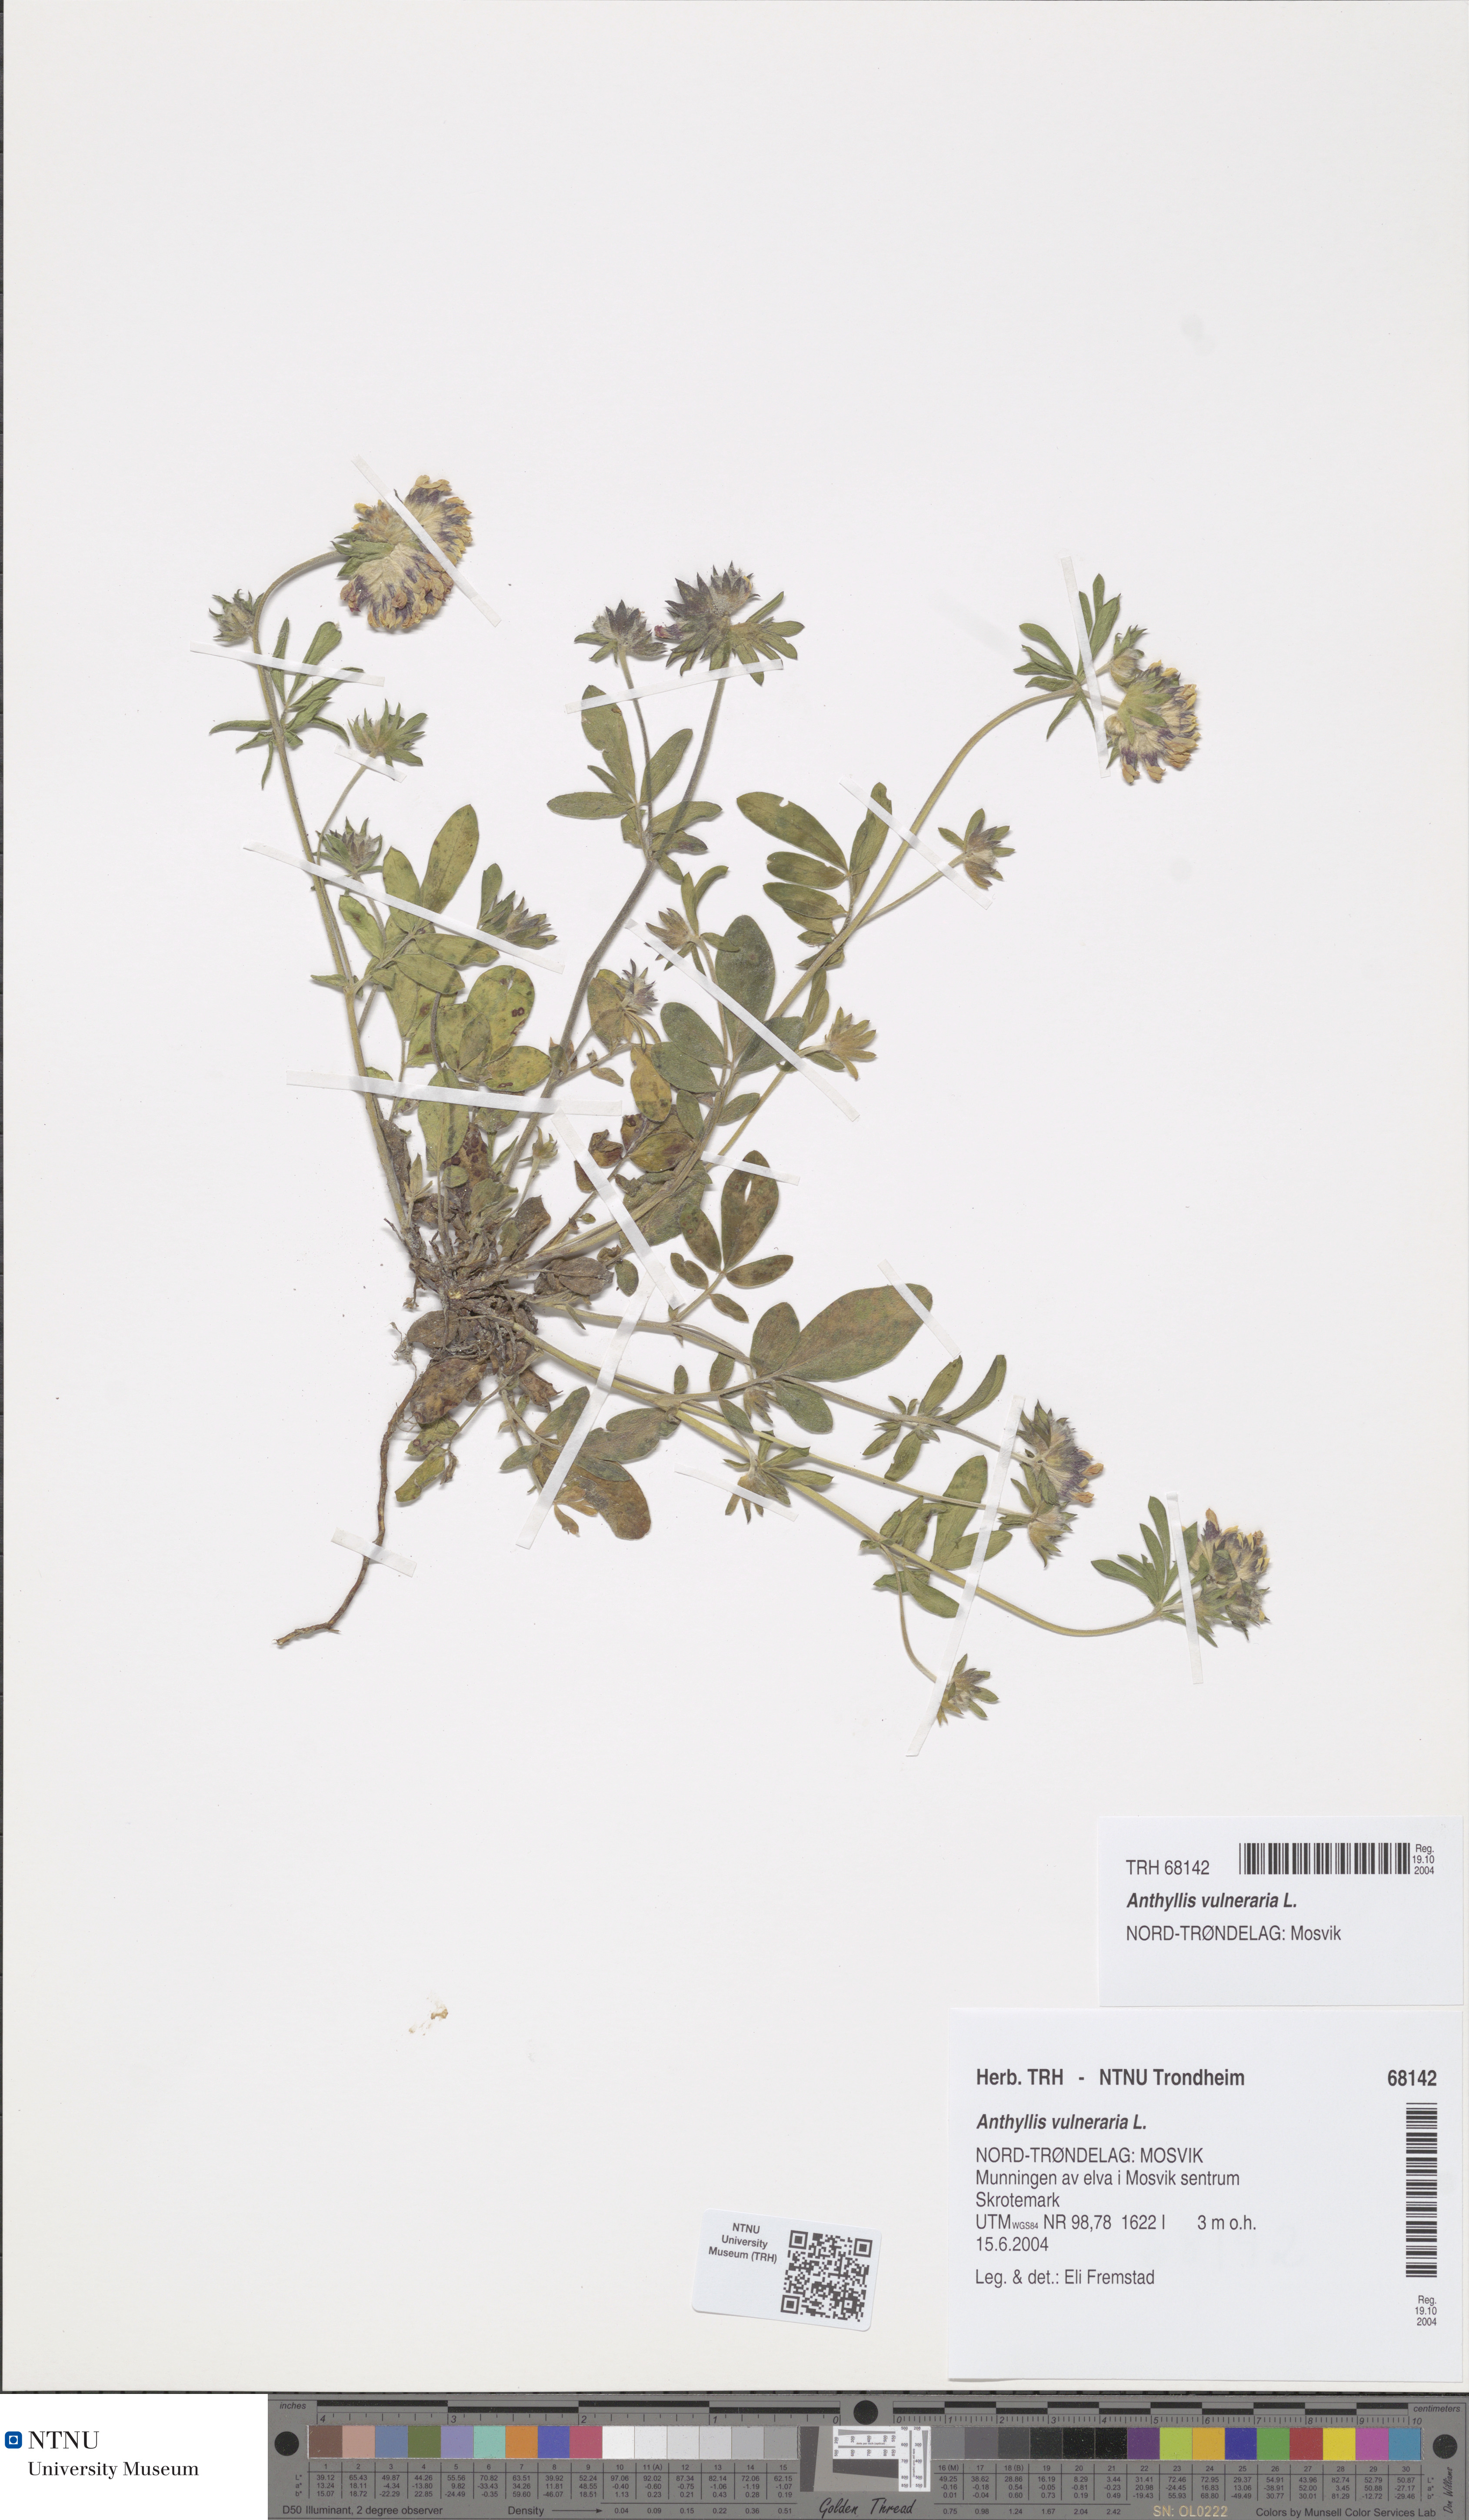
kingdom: Plantae
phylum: Tracheophyta
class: Magnoliopsida
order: Fabales
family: Fabaceae
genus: Anthyllis
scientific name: Anthyllis vulneraria
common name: Kidney vetch
